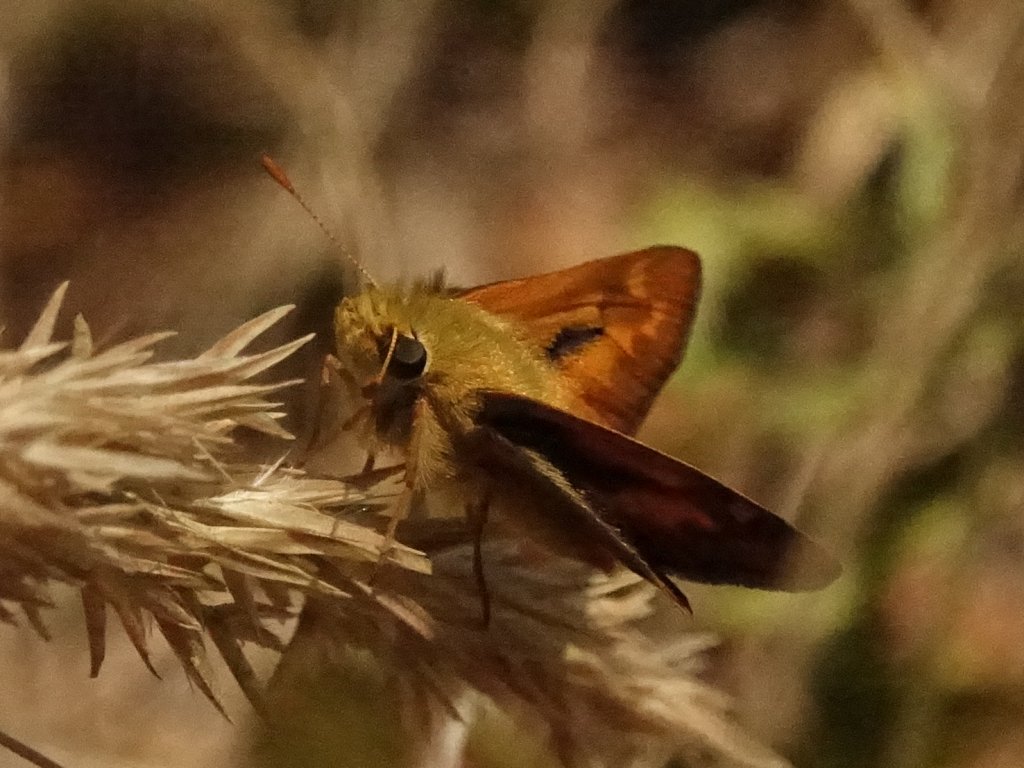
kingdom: Animalia
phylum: Arthropoda
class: Insecta
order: Lepidoptera
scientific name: Lepidoptera
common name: Butterflies
